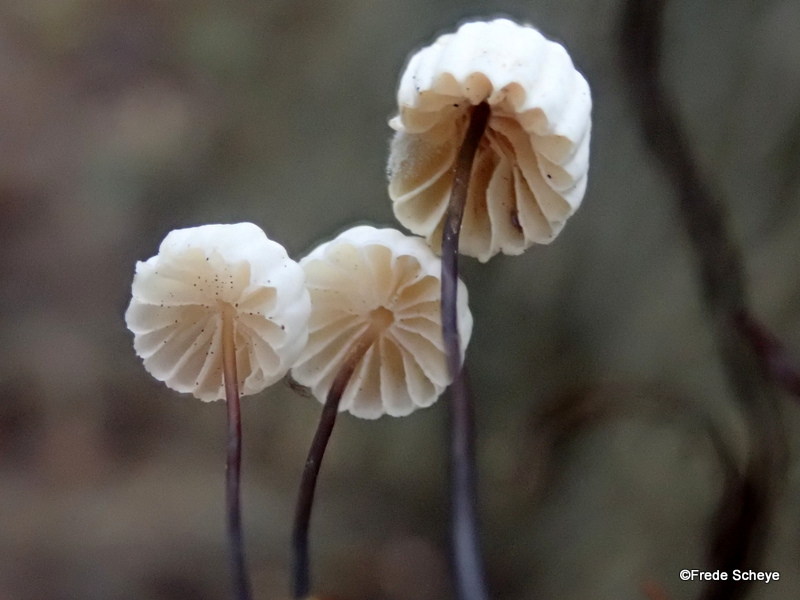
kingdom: Fungi
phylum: Basidiomycota
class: Agaricomycetes
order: Agaricales
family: Marasmiaceae
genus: Marasmius
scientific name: Marasmius rotula
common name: hjul-bruskhat
